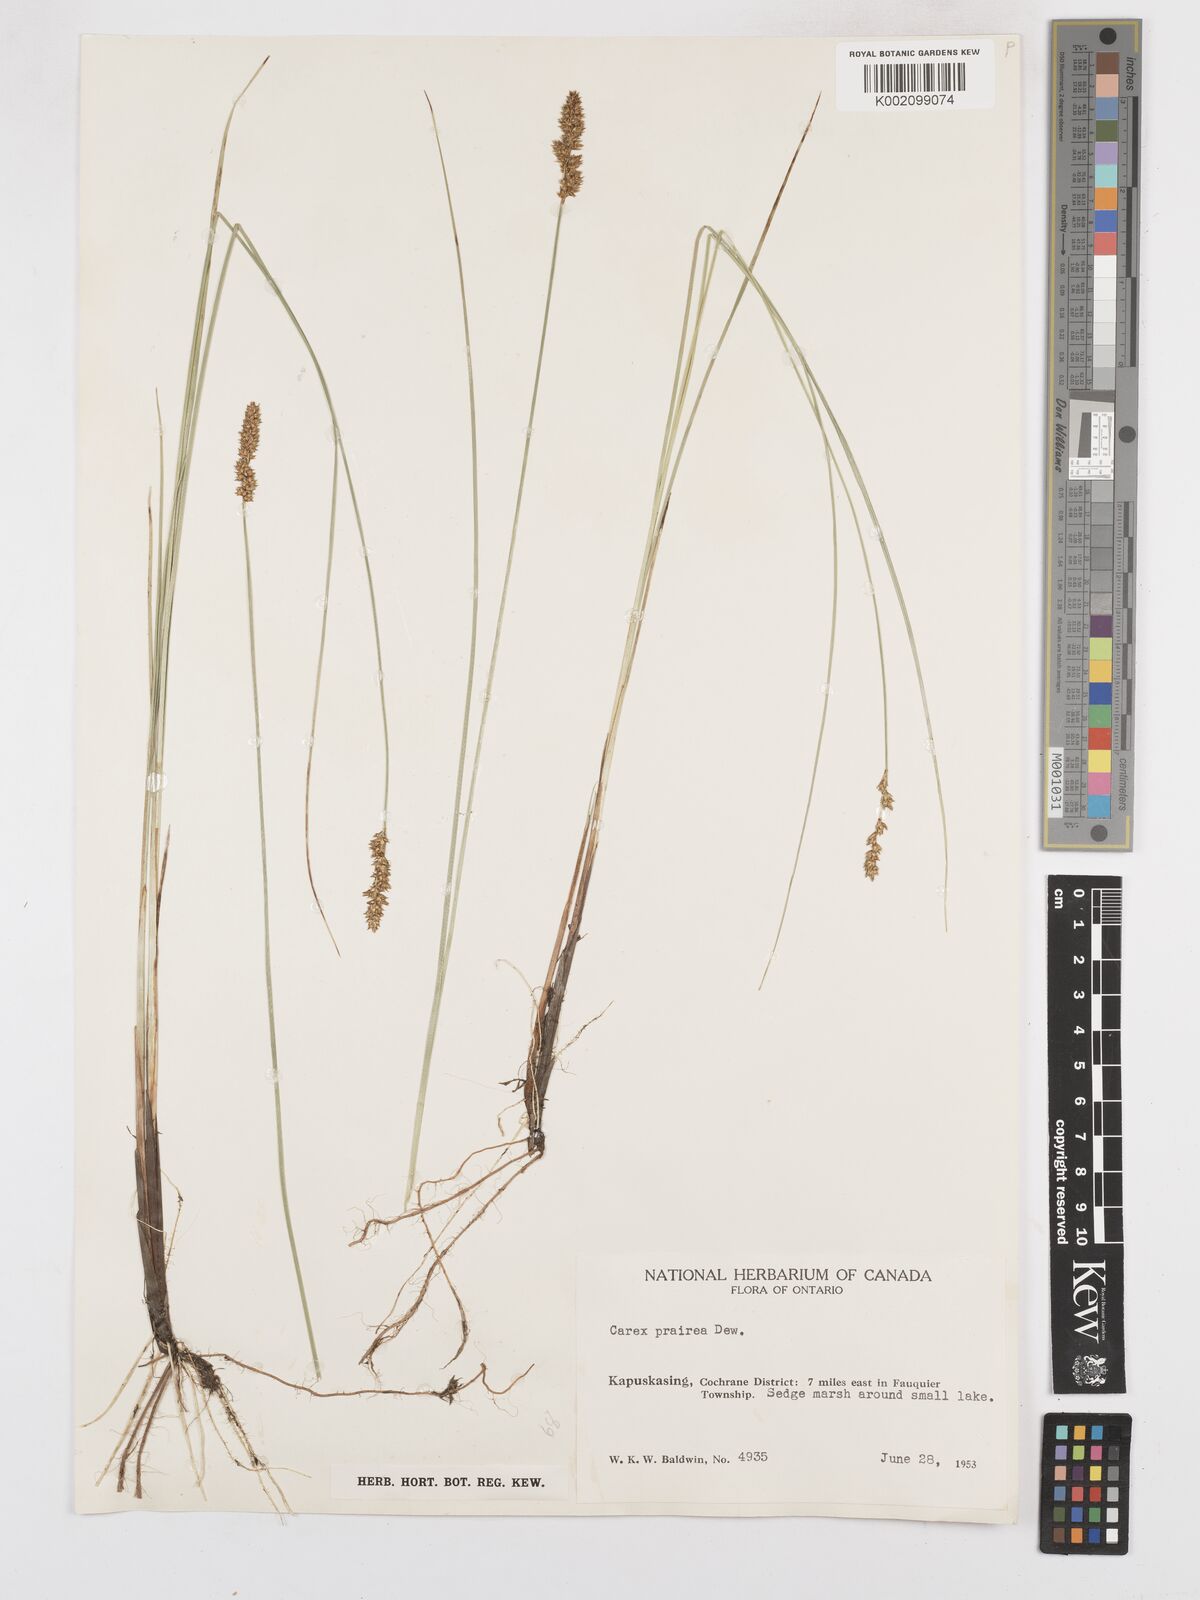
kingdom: Plantae
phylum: Tracheophyta
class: Liliopsida
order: Poales
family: Cyperaceae
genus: Carex
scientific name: Carex prairea
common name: Prairie sedge
